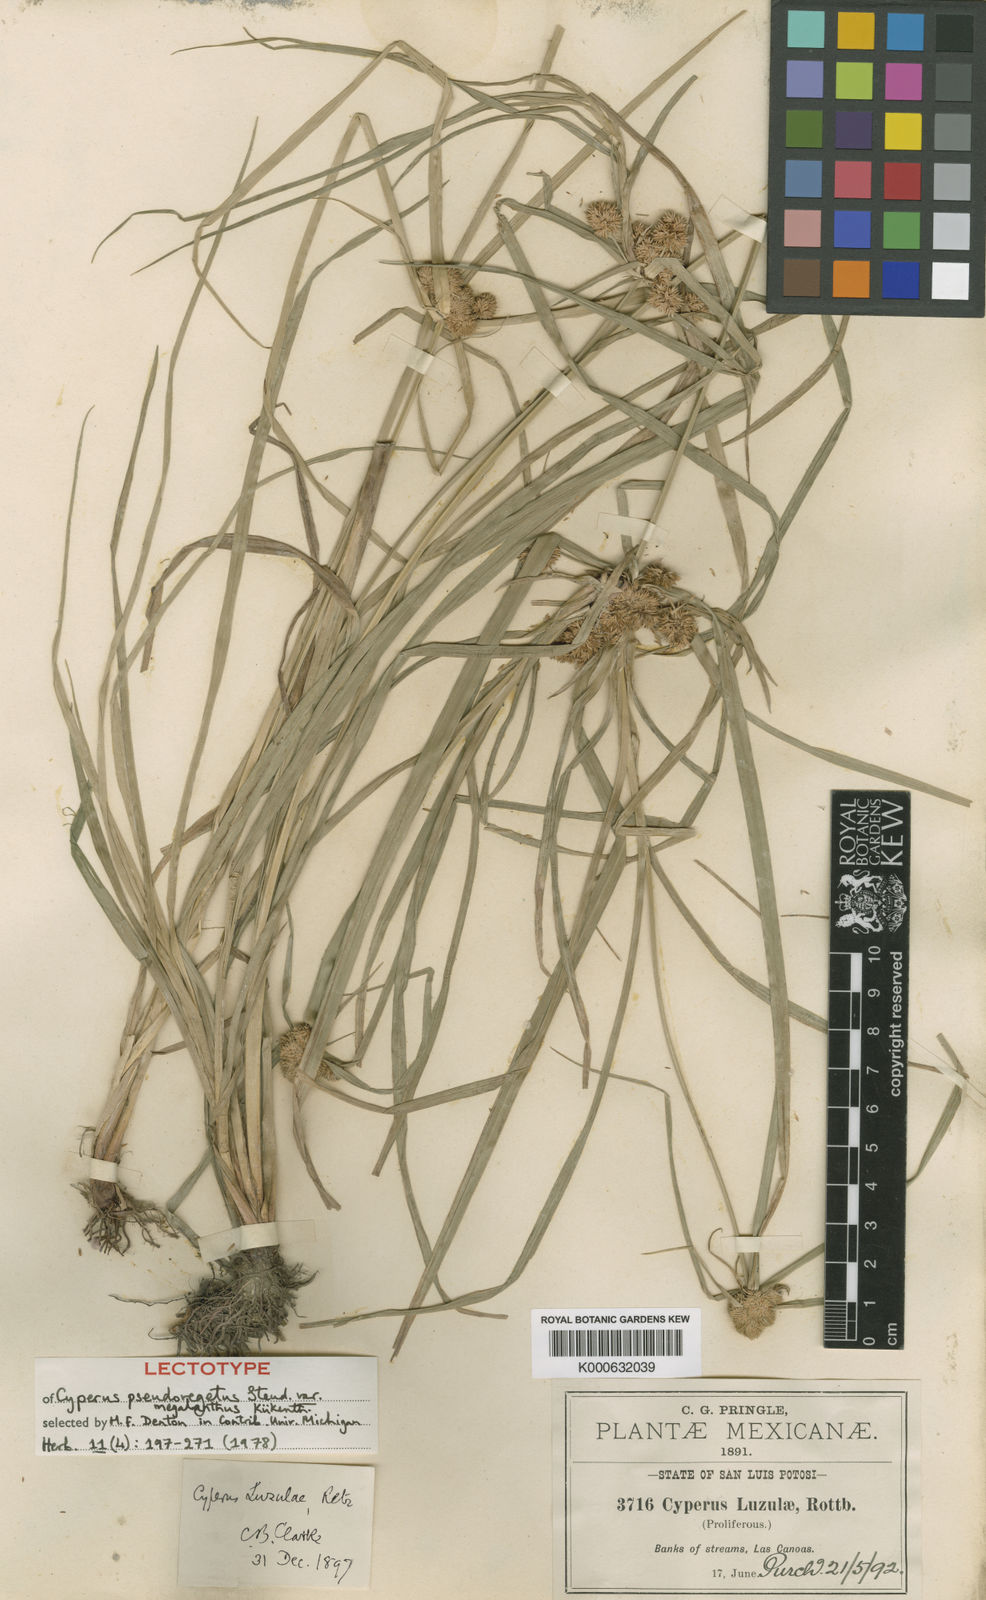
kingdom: Plantae
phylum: Tracheophyta
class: Liliopsida
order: Poales
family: Cyperaceae
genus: Cyperus
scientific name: Cyperus pseudovegetus
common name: Marsh flat sedge
